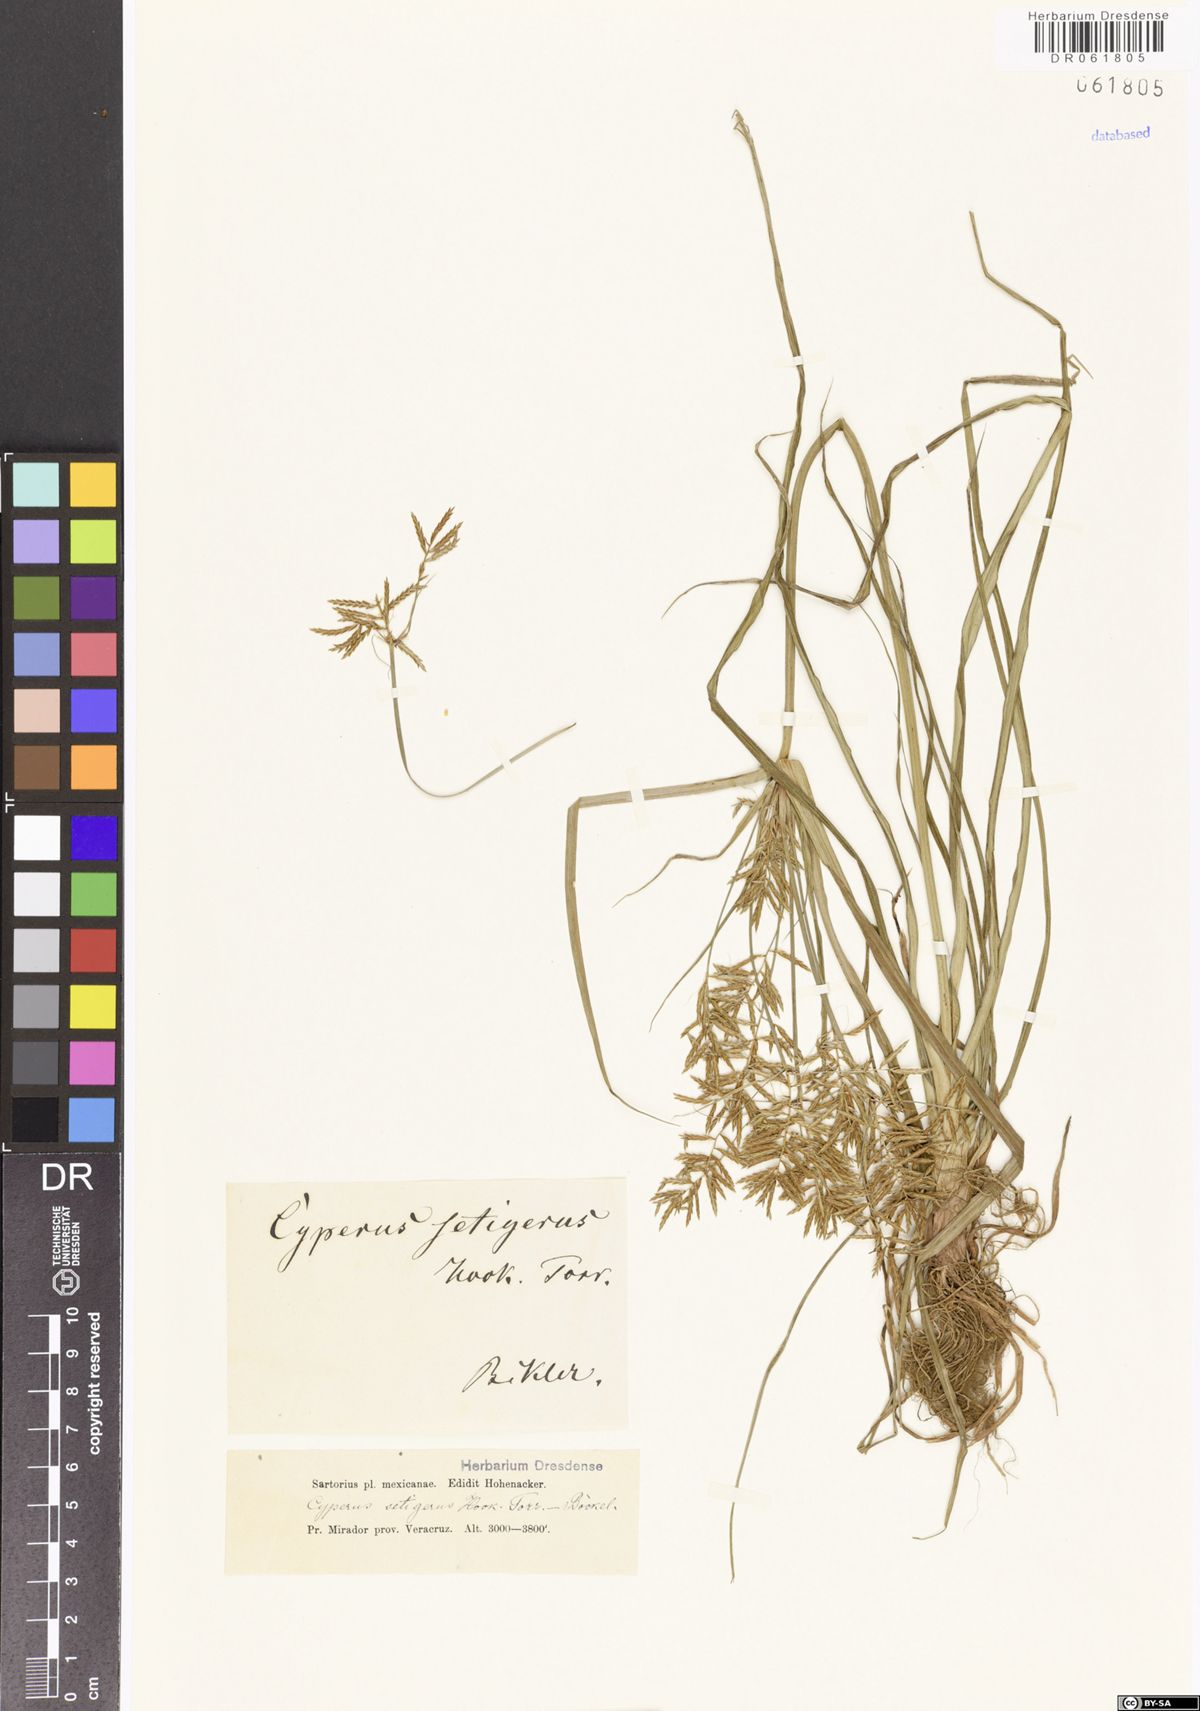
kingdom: Plantae
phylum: Tracheophyta
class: Liliopsida
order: Poales
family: Cyperaceae
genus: Cyperus
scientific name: Cyperus setigerus
